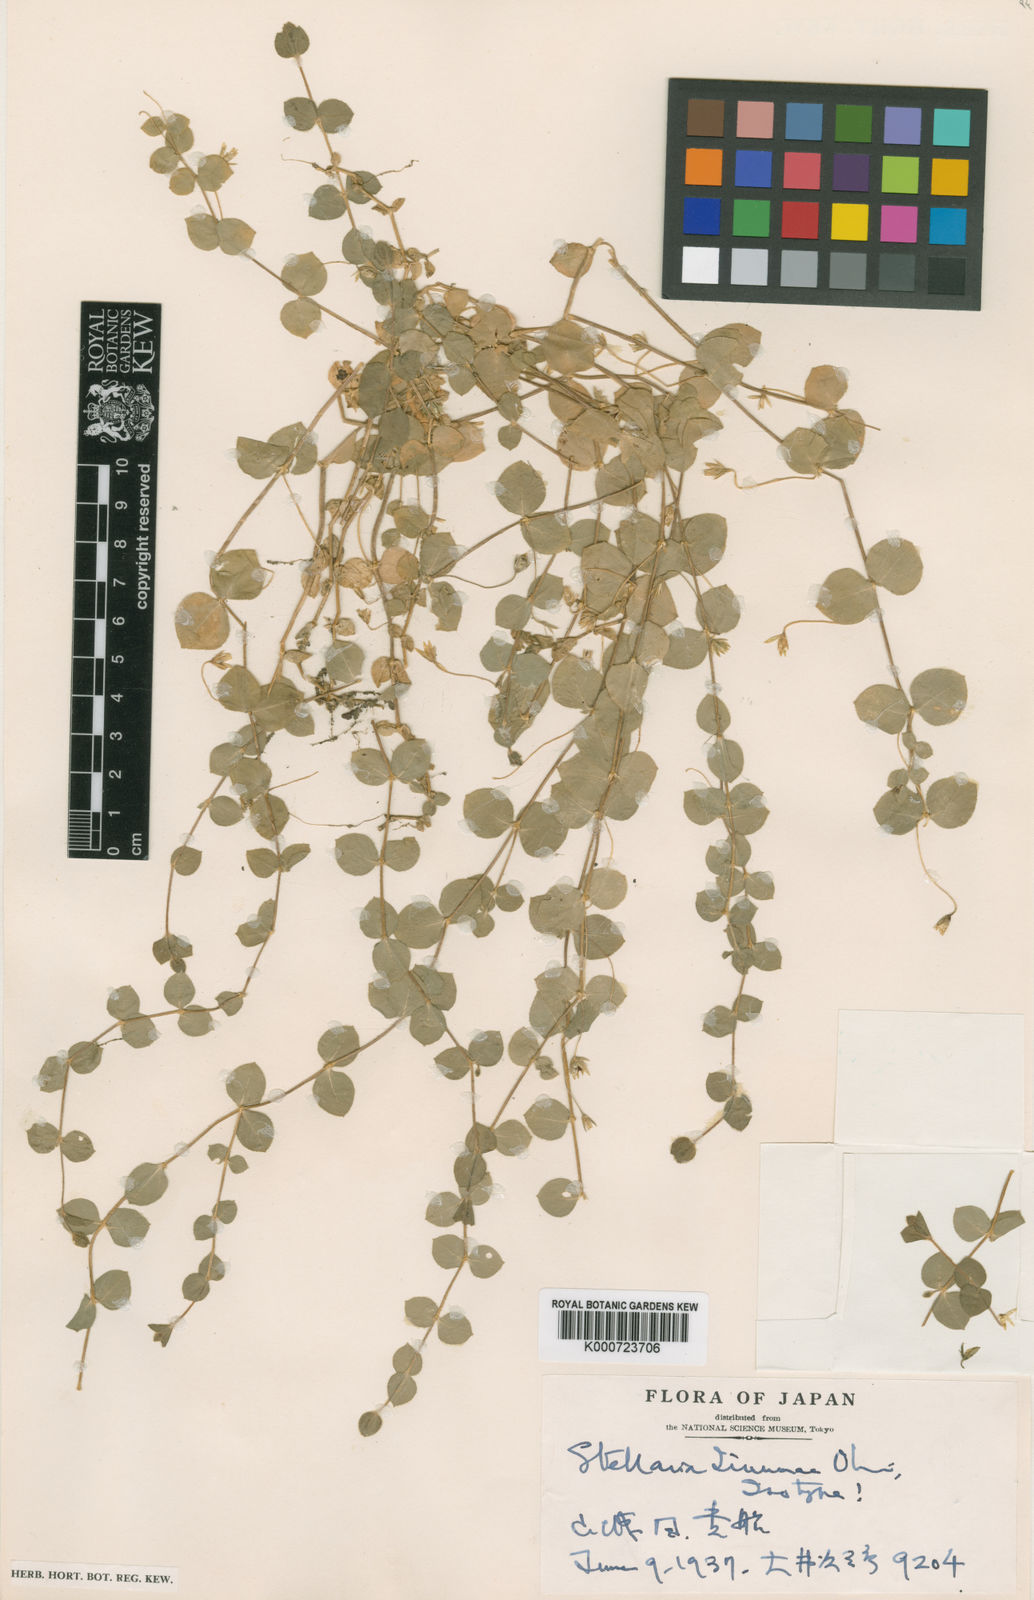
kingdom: Plantae
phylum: Tracheophyta
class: Magnoliopsida
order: Caryophyllales
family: Caryophyllaceae
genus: Stellaria
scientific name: Stellaria uchiyamana
